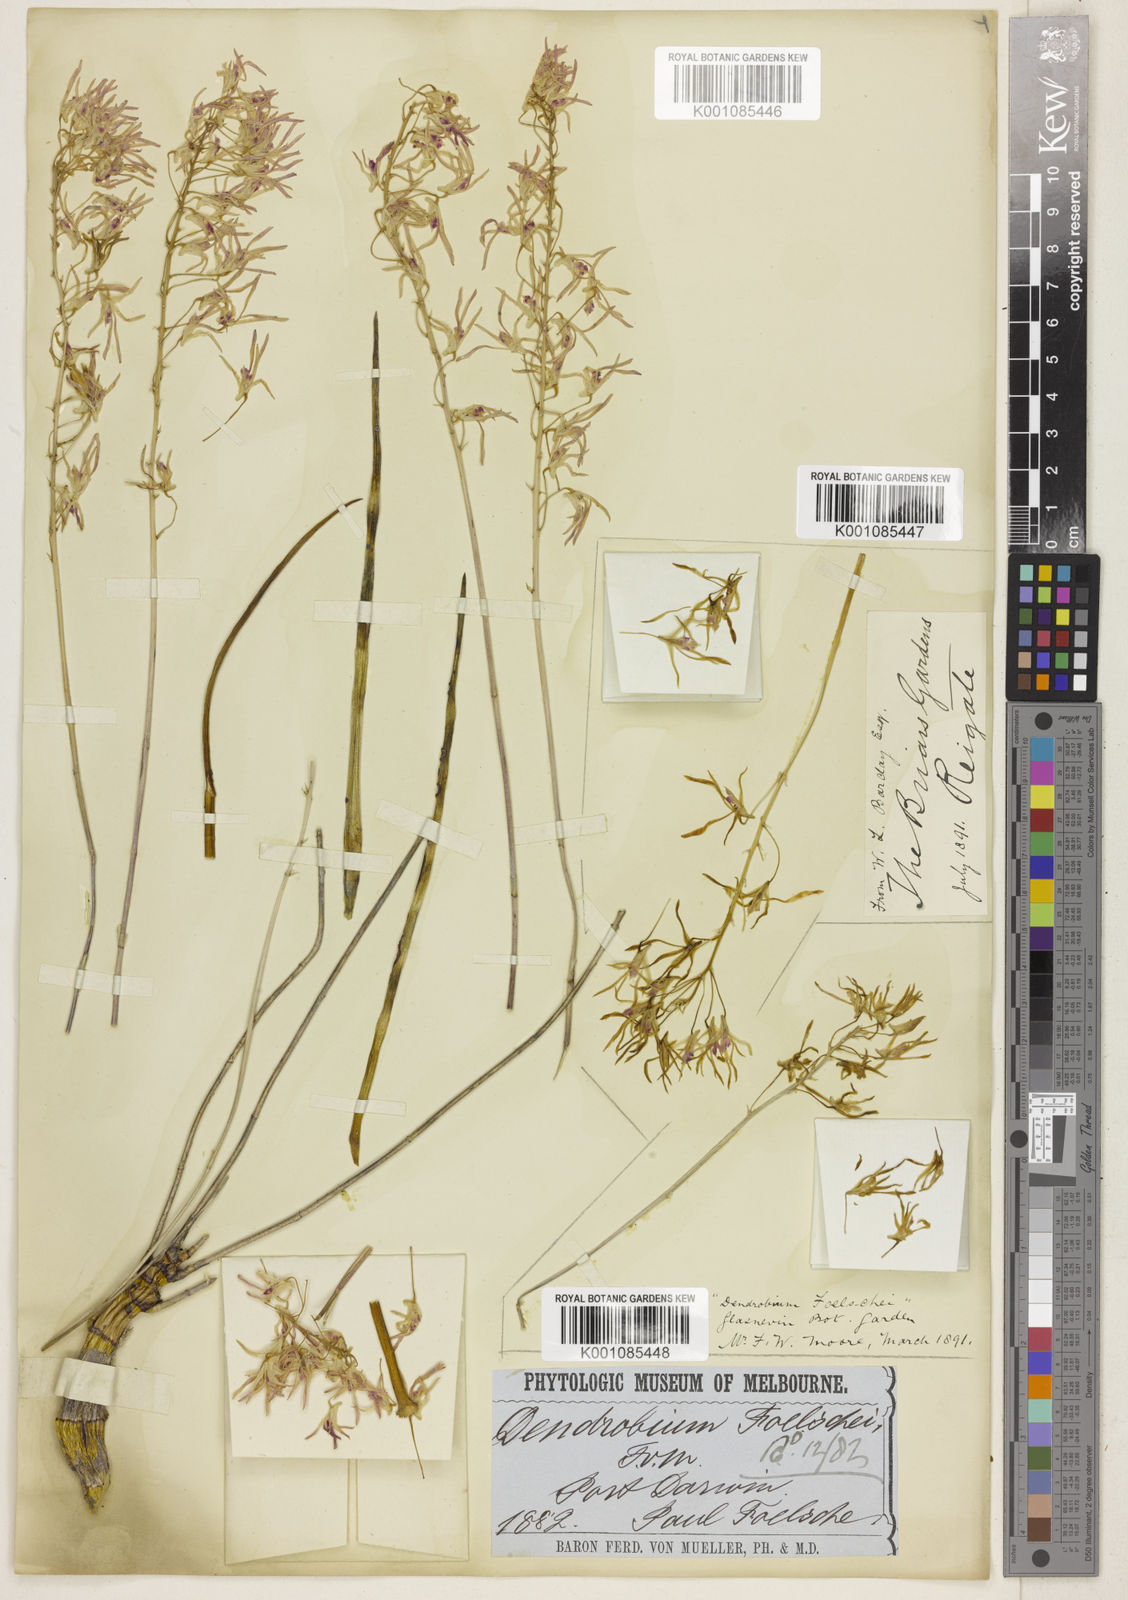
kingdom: Plantae
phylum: Tracheophyta
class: Liliopsida
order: Asparagales
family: Orchidaceae
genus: Dendrobium
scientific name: Dendrobium canaliculatum
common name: Tea tree orchid
